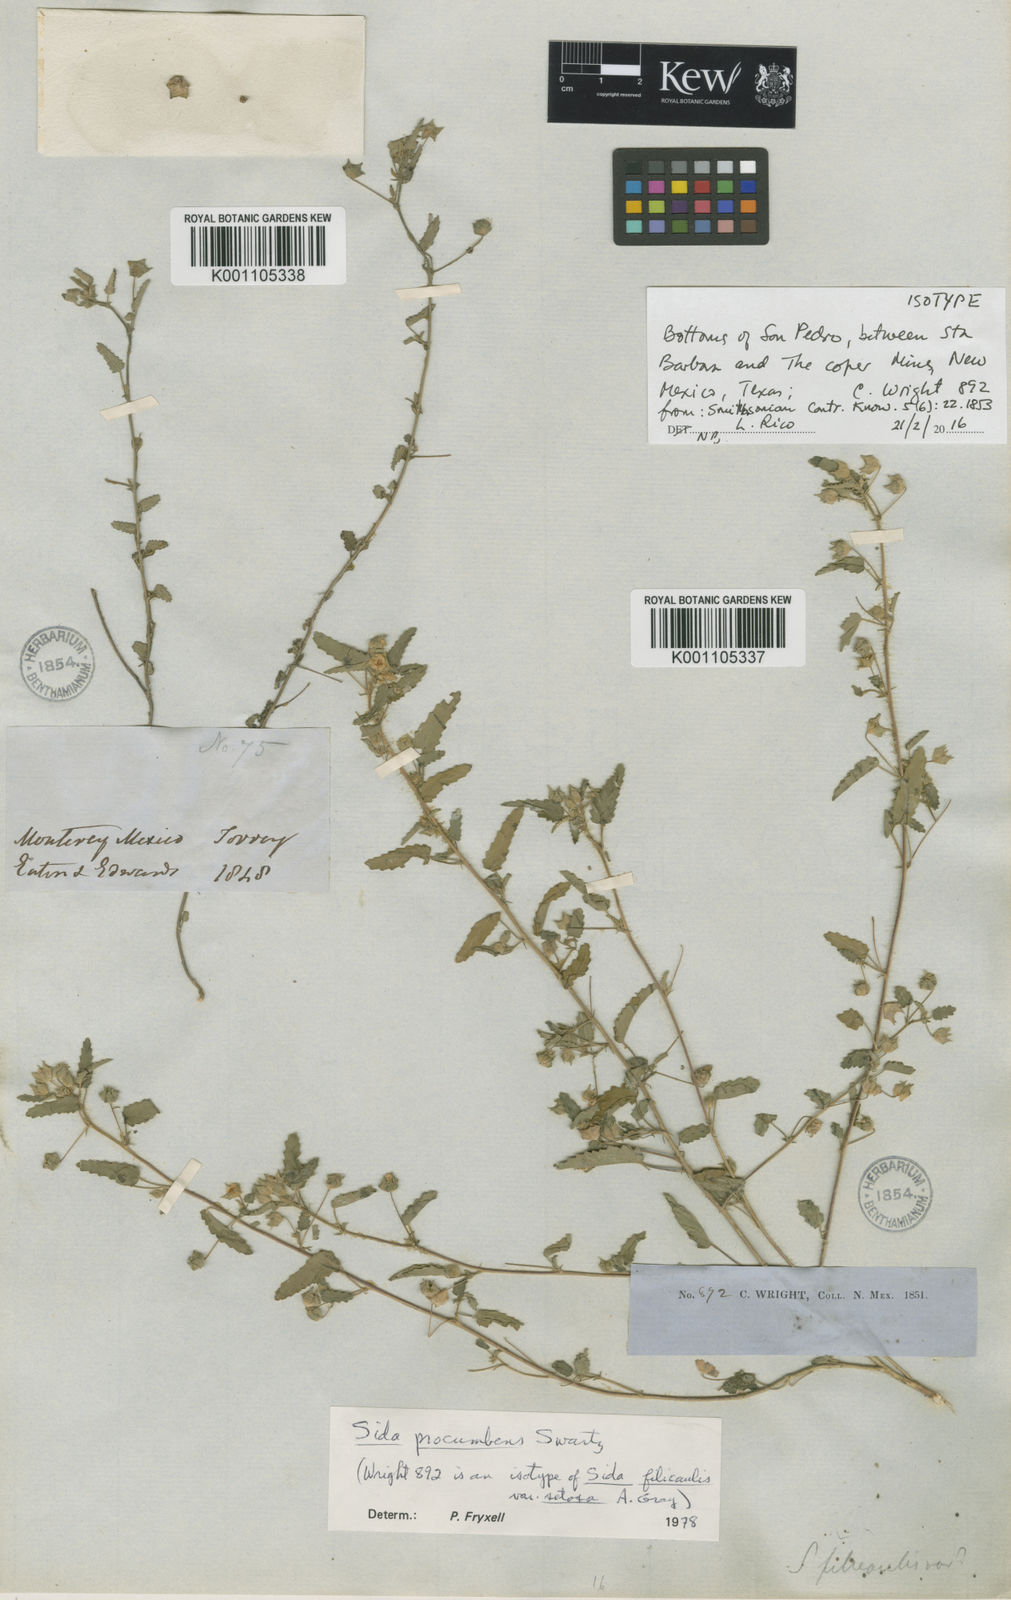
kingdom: Plantae
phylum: Tracheophyta
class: Magnoliopsida
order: Malvales
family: Malvaceae
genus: Sida
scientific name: Sida abutilifolia
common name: Spreading fanpetals
